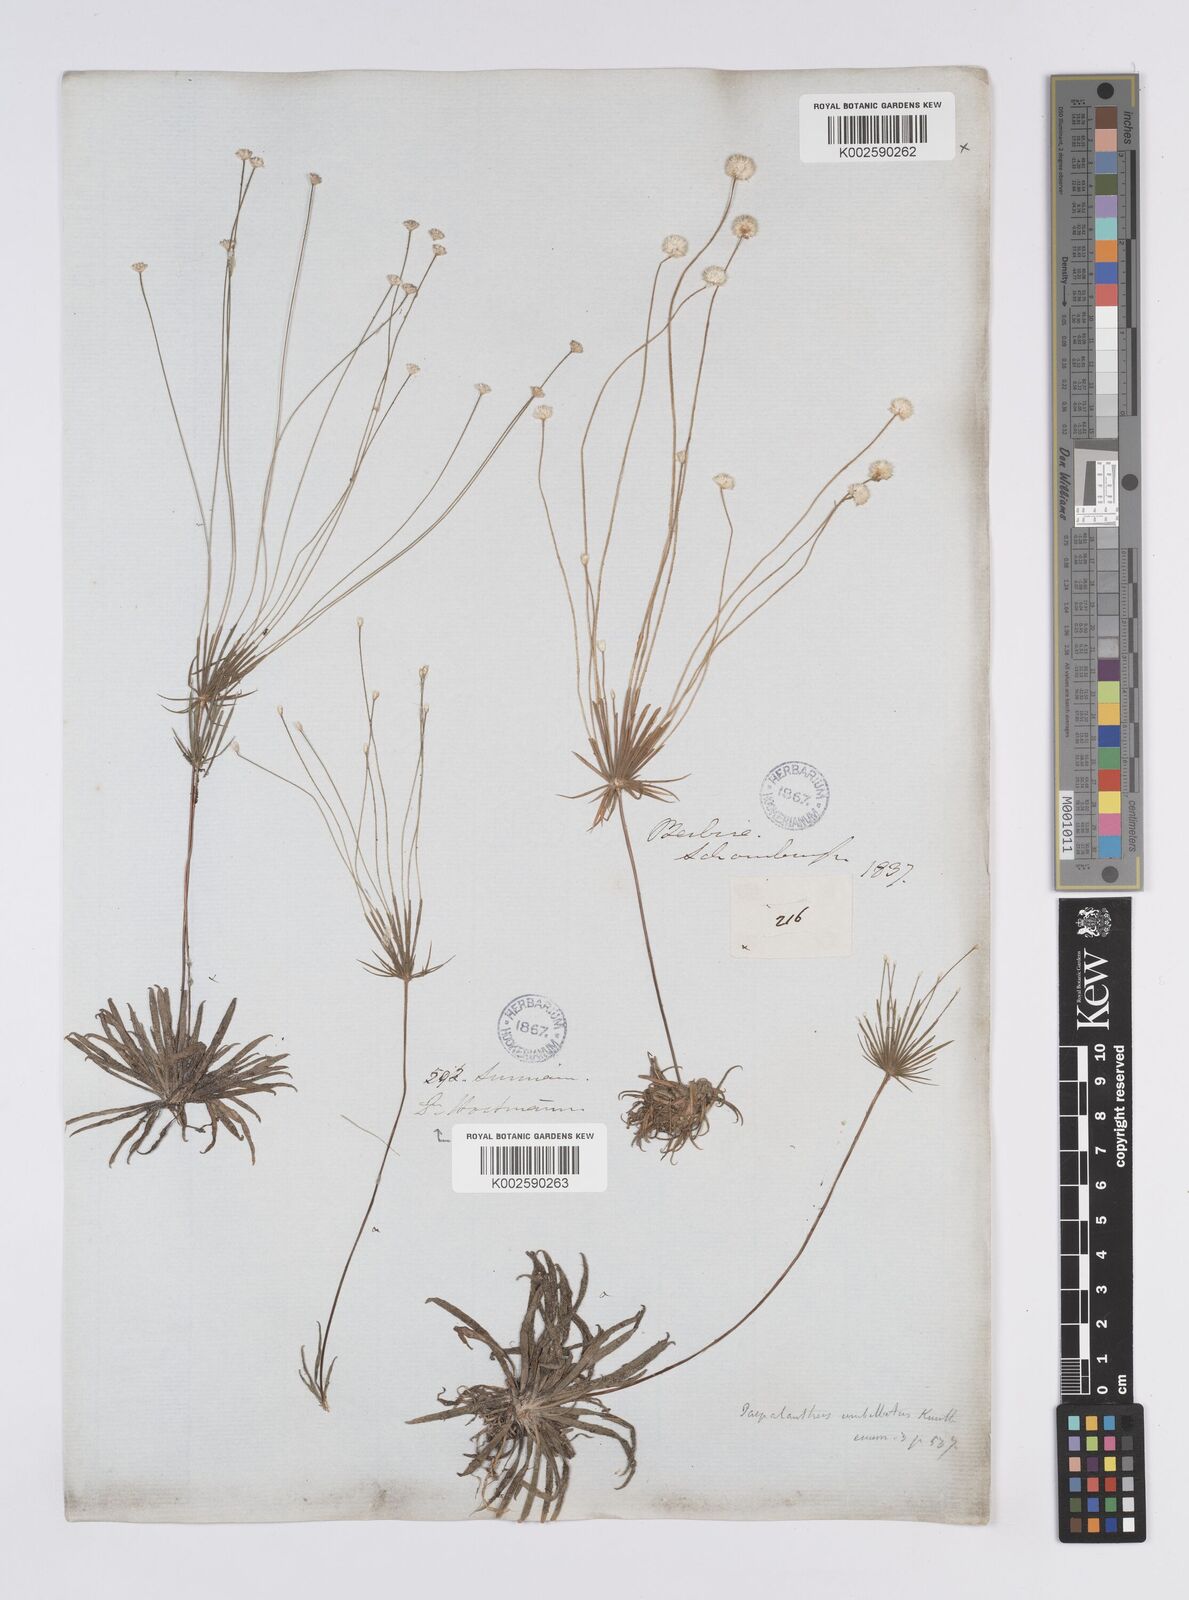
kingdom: Plantae
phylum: Tracheophyta
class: Liliopsida
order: Poales
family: Eriocaulaceae
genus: Syngonanthus
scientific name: Syngonanthus umbellatus
